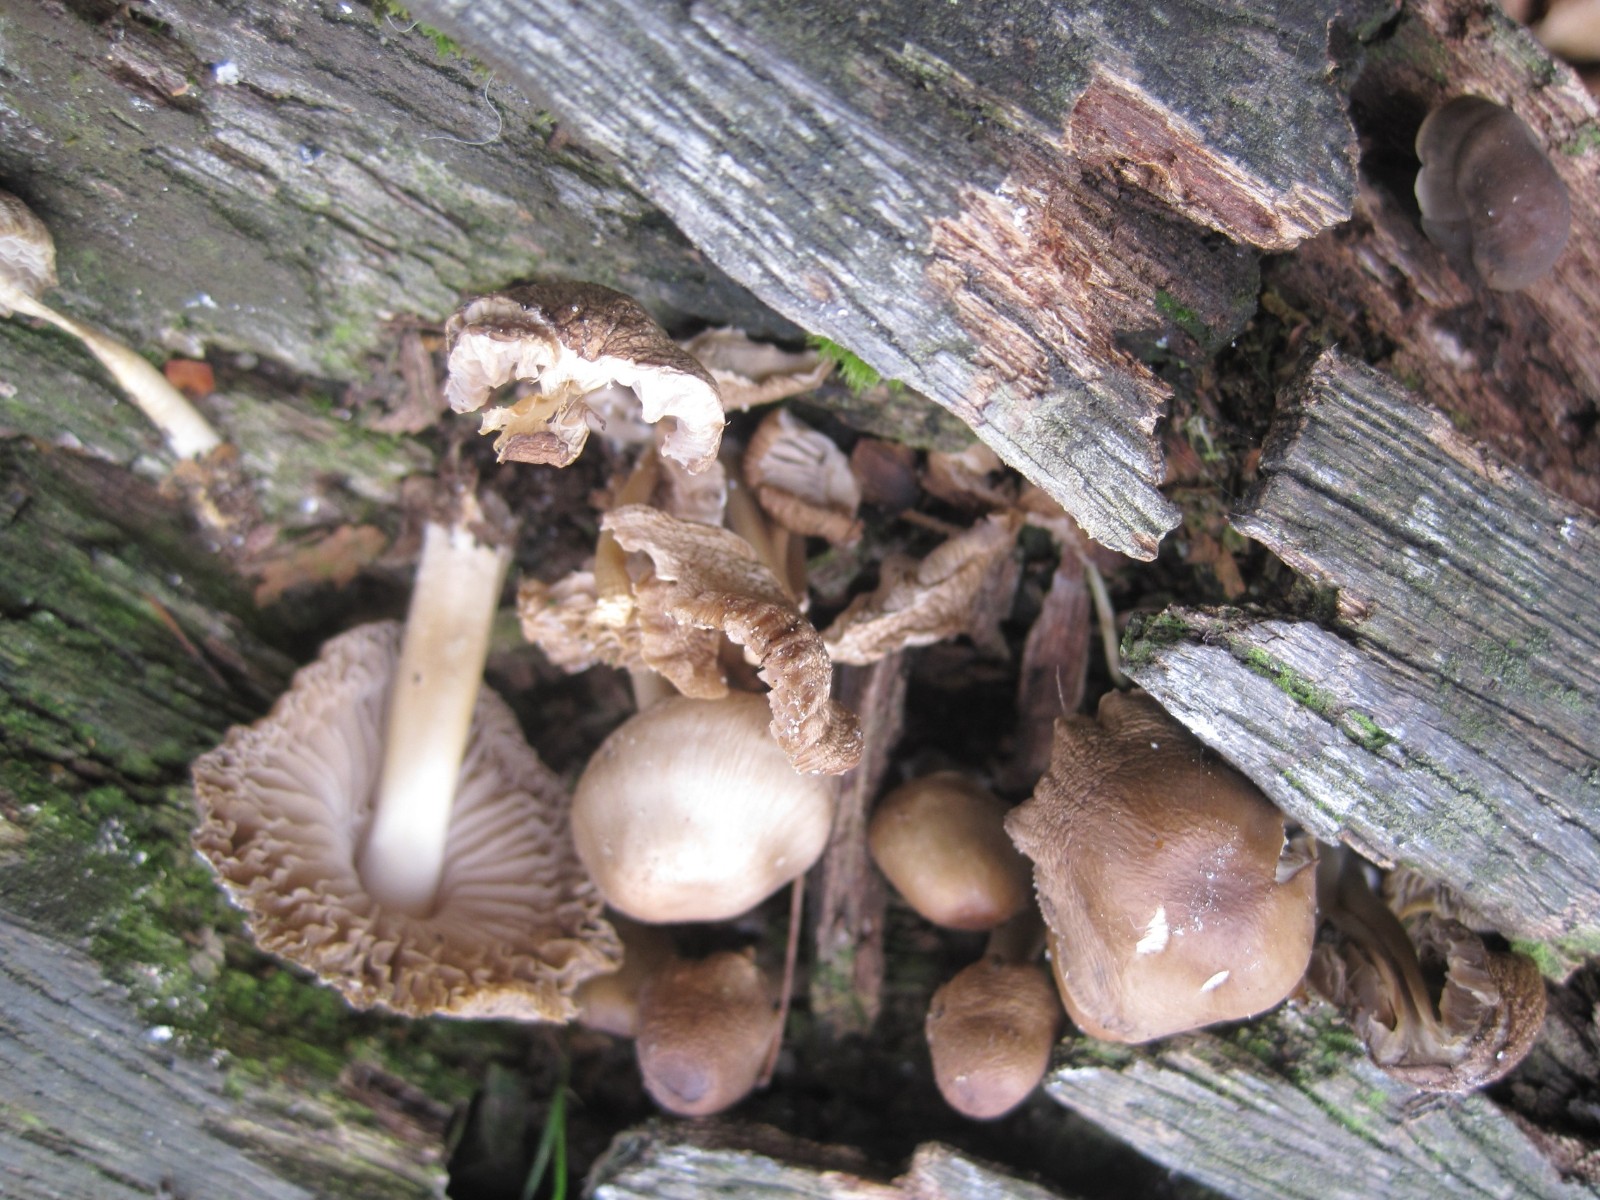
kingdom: Fungi
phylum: Basidiomycota
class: Agaricomycetes
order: Agaricales
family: Mycenaceae
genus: Mycena
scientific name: Mycena inclinata
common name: nikkende huesvamp
